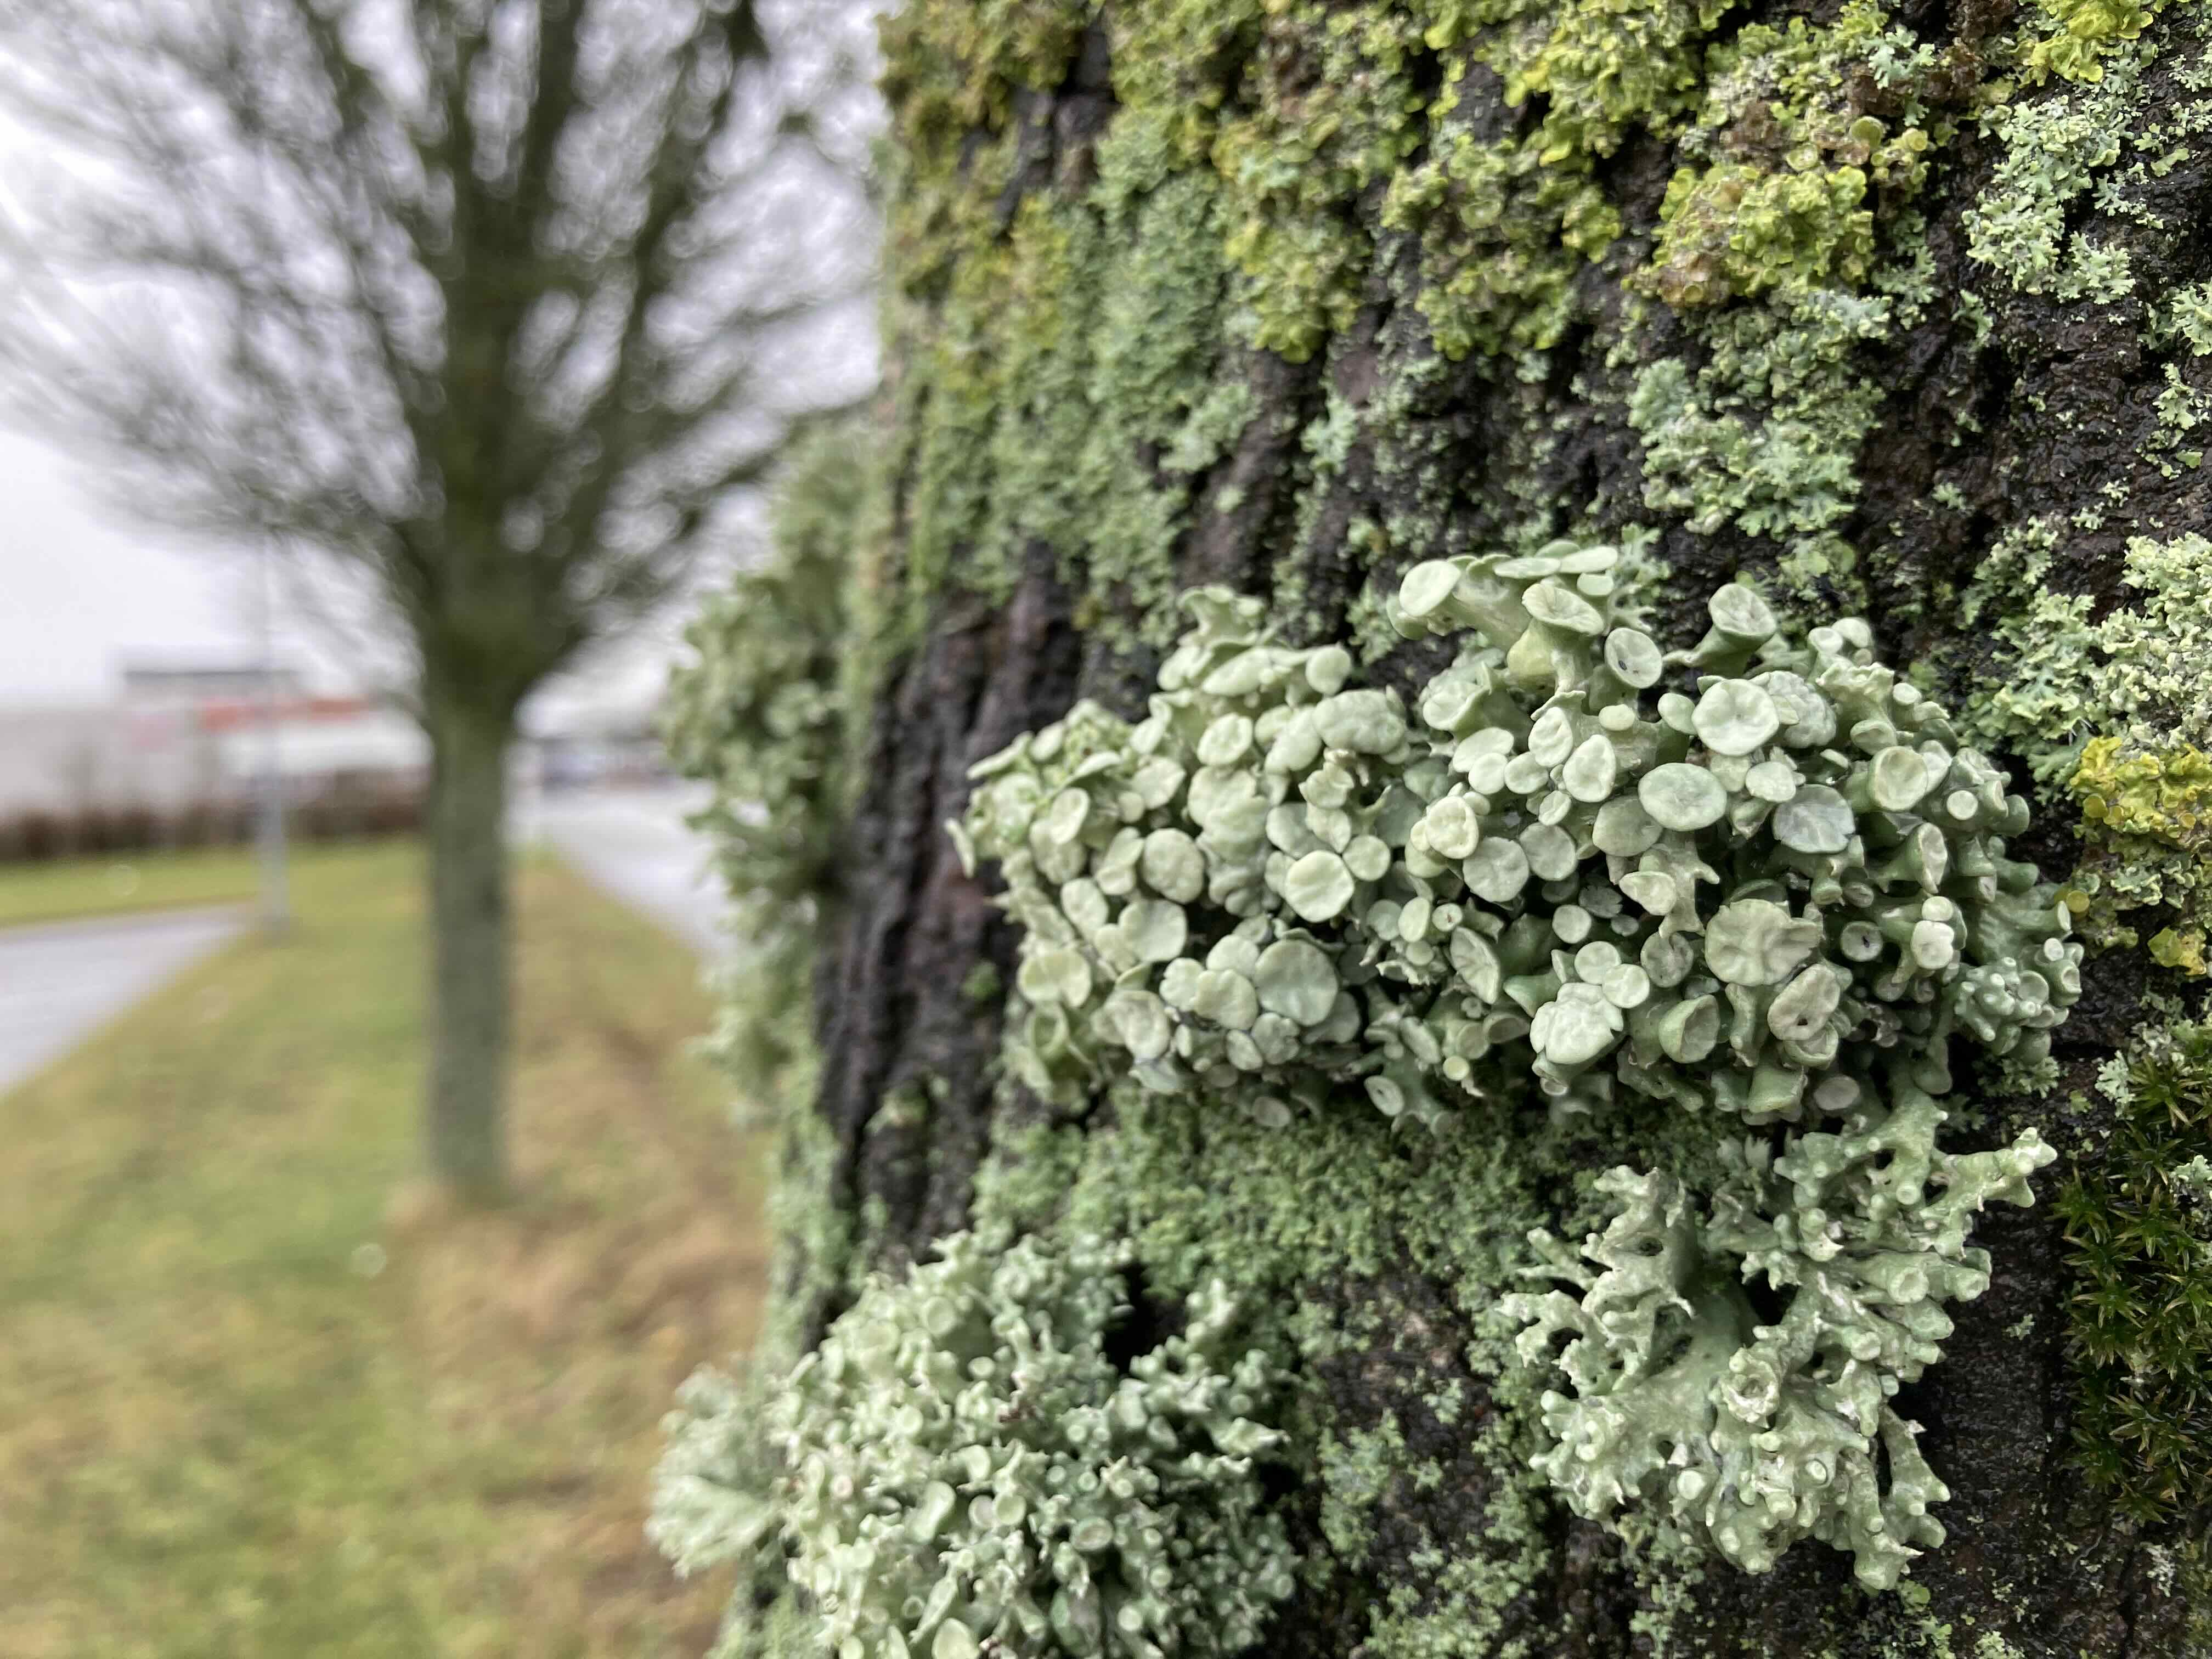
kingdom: Fungi
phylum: Ascomycota
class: Lecanoromycetes
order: Lecanorales
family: Ramalinaceae
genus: Ramalina
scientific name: Ramalina fastigiata
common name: tue-grenlav
